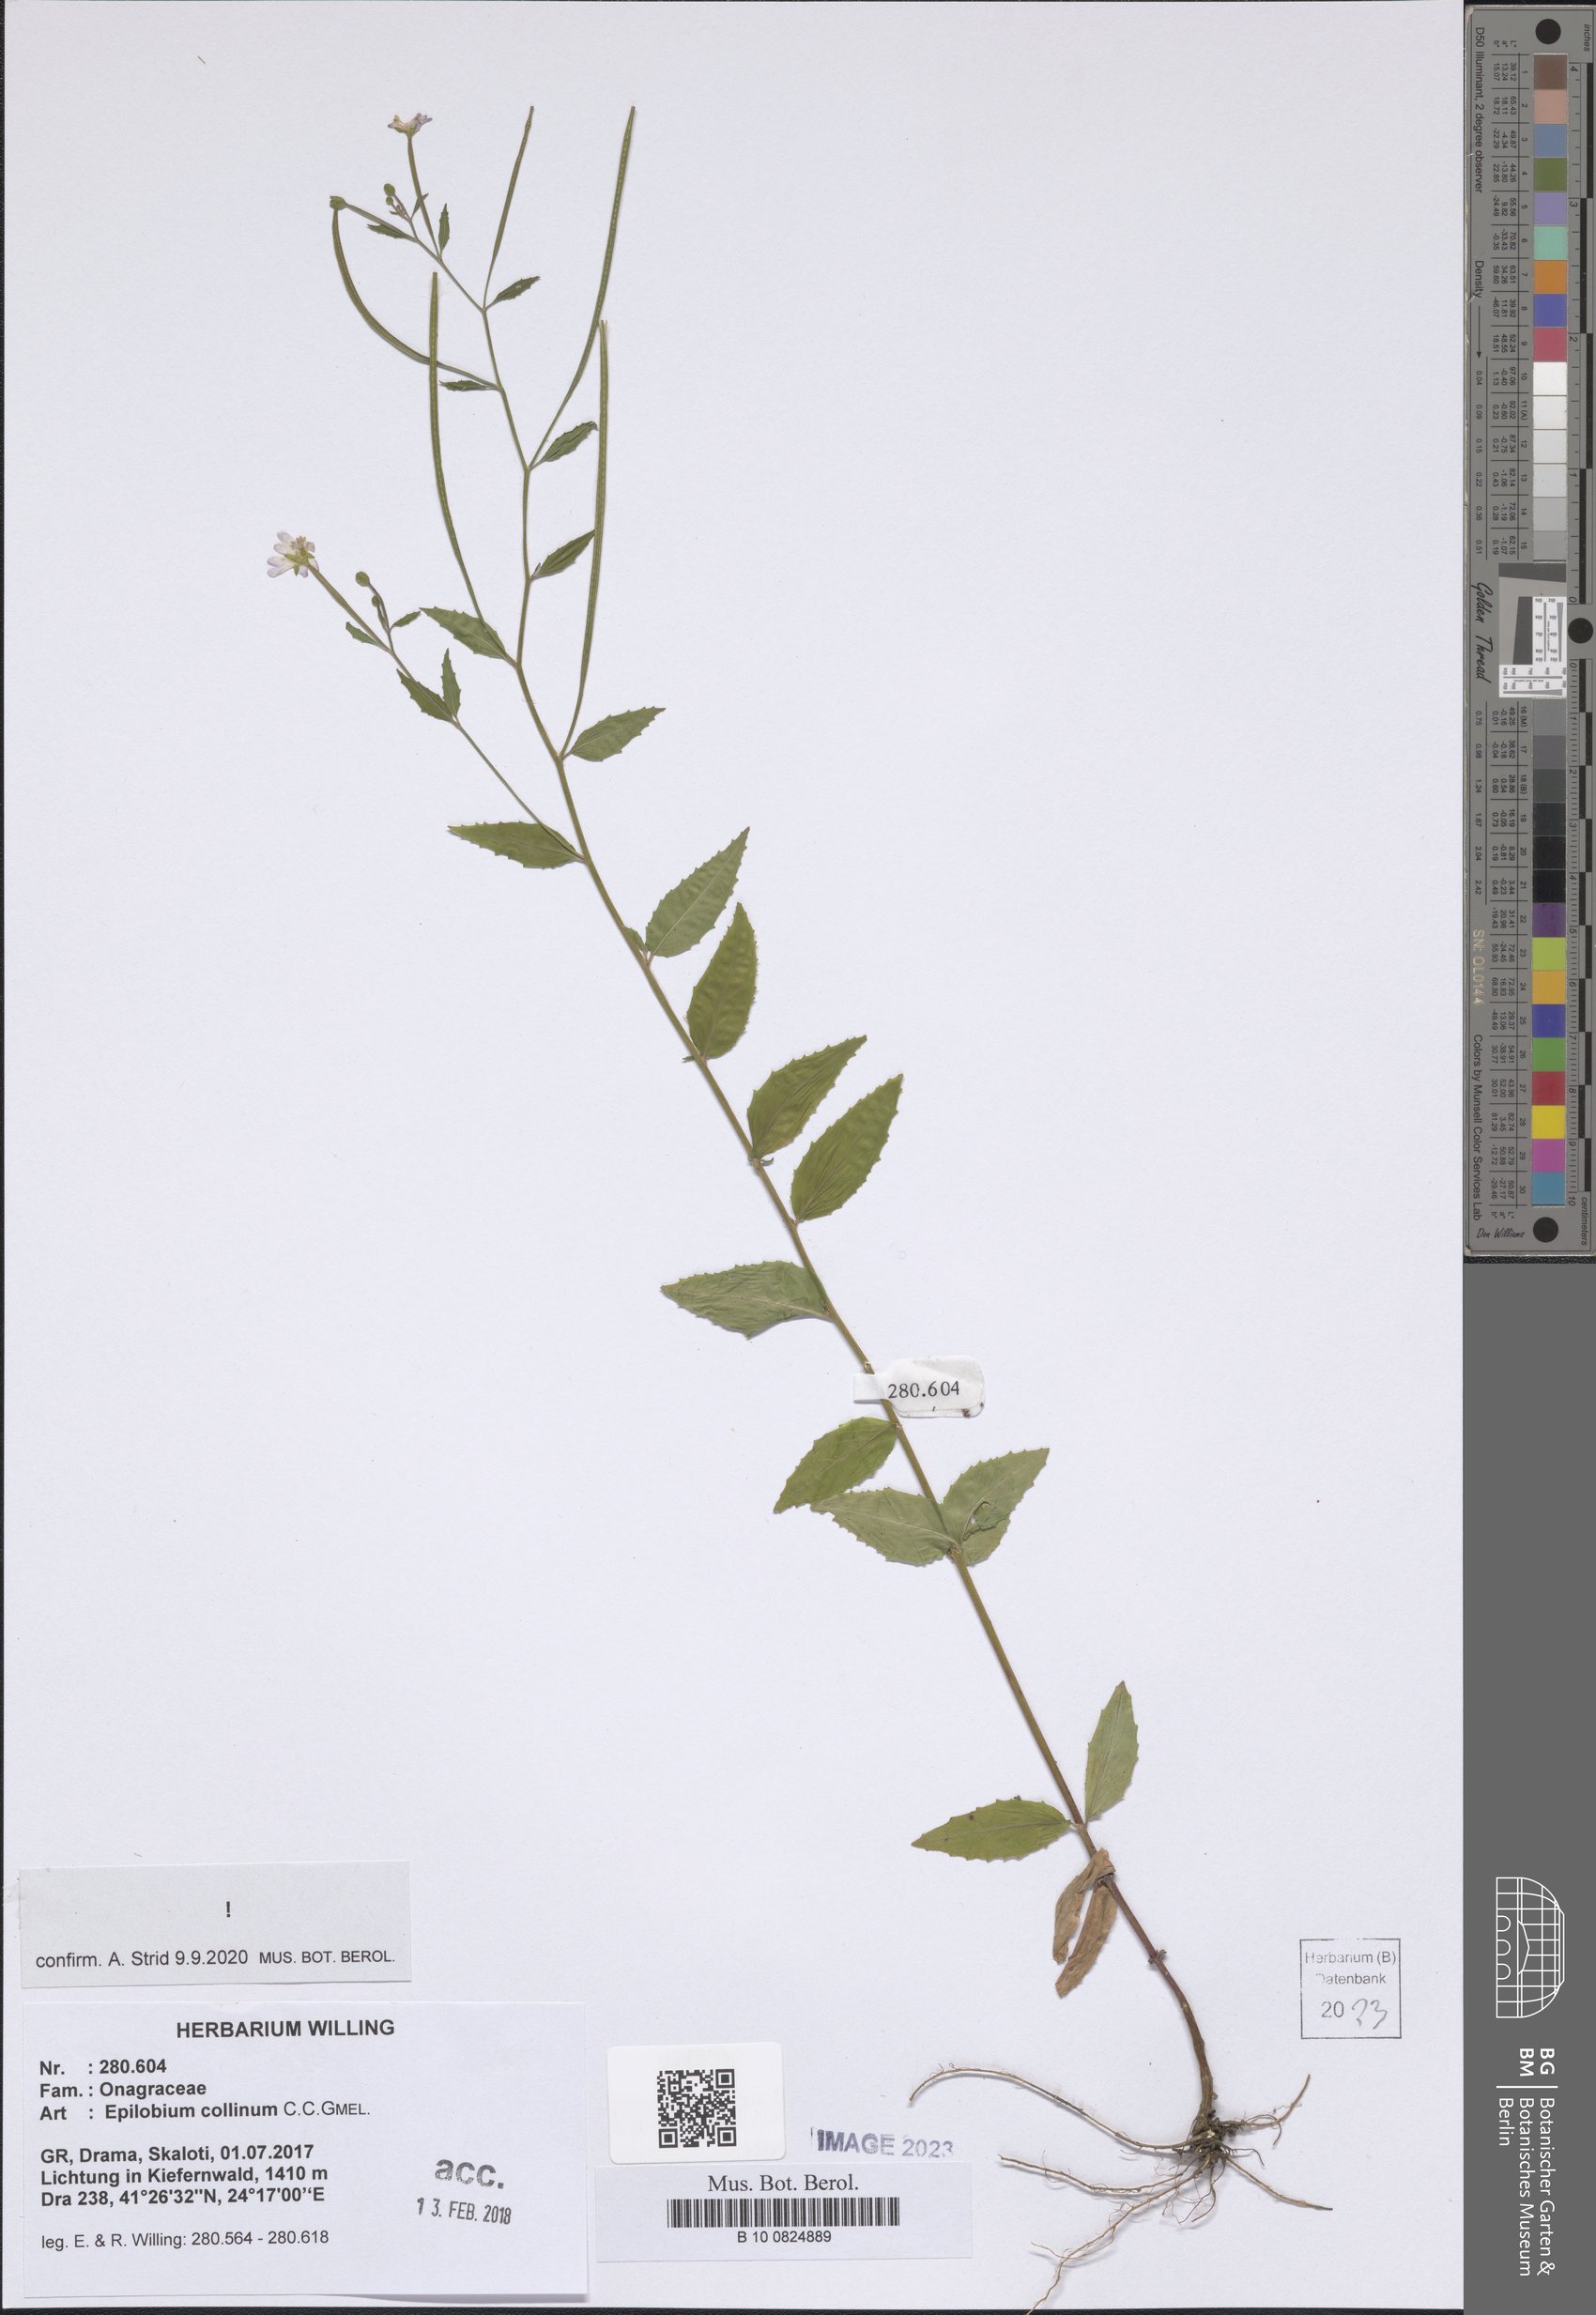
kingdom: Plantae
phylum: Tracheophyta
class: Magnoliopsida
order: Myrtales
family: Onagraceae
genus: Epilobium
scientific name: Epilobium collinum
